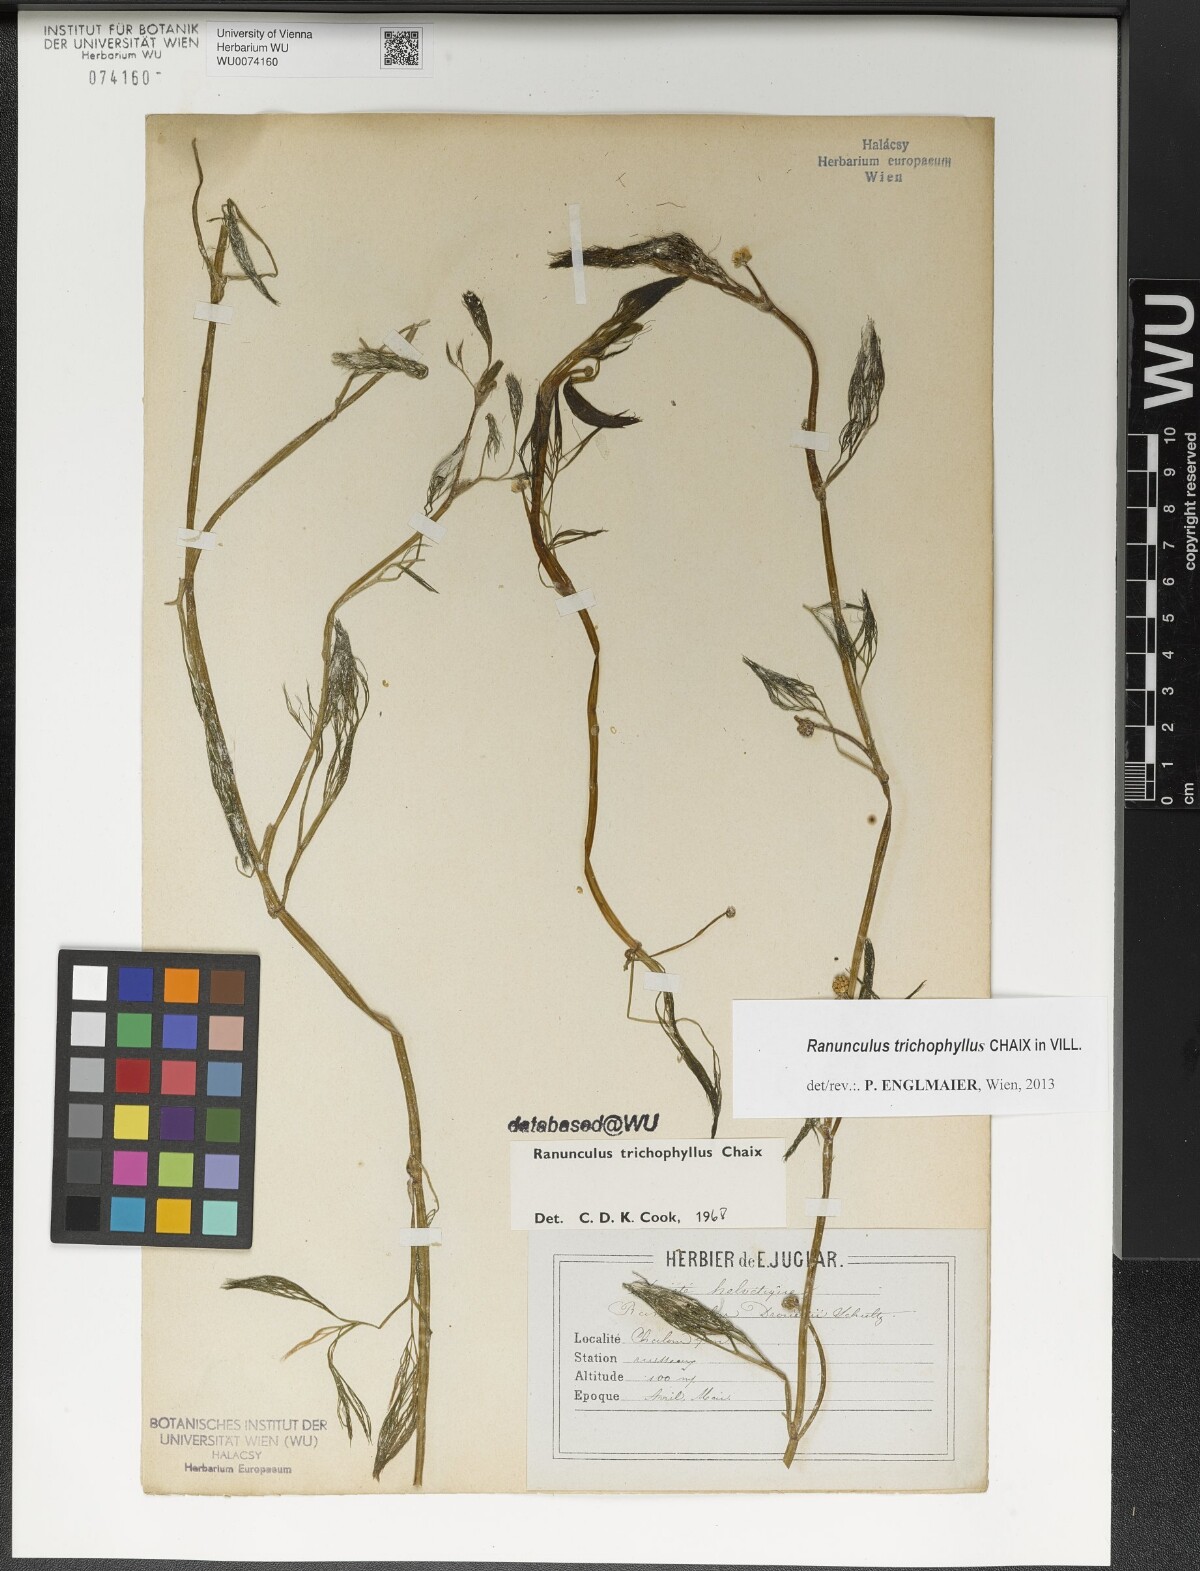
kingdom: Plantae
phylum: Tracheophyta
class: Magnoliopsida
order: Ranunculales
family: Ranunculaceae
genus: Ranunculus
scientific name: Ranunculus trichophyllus
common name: Thread-leaved water-crowfoot
